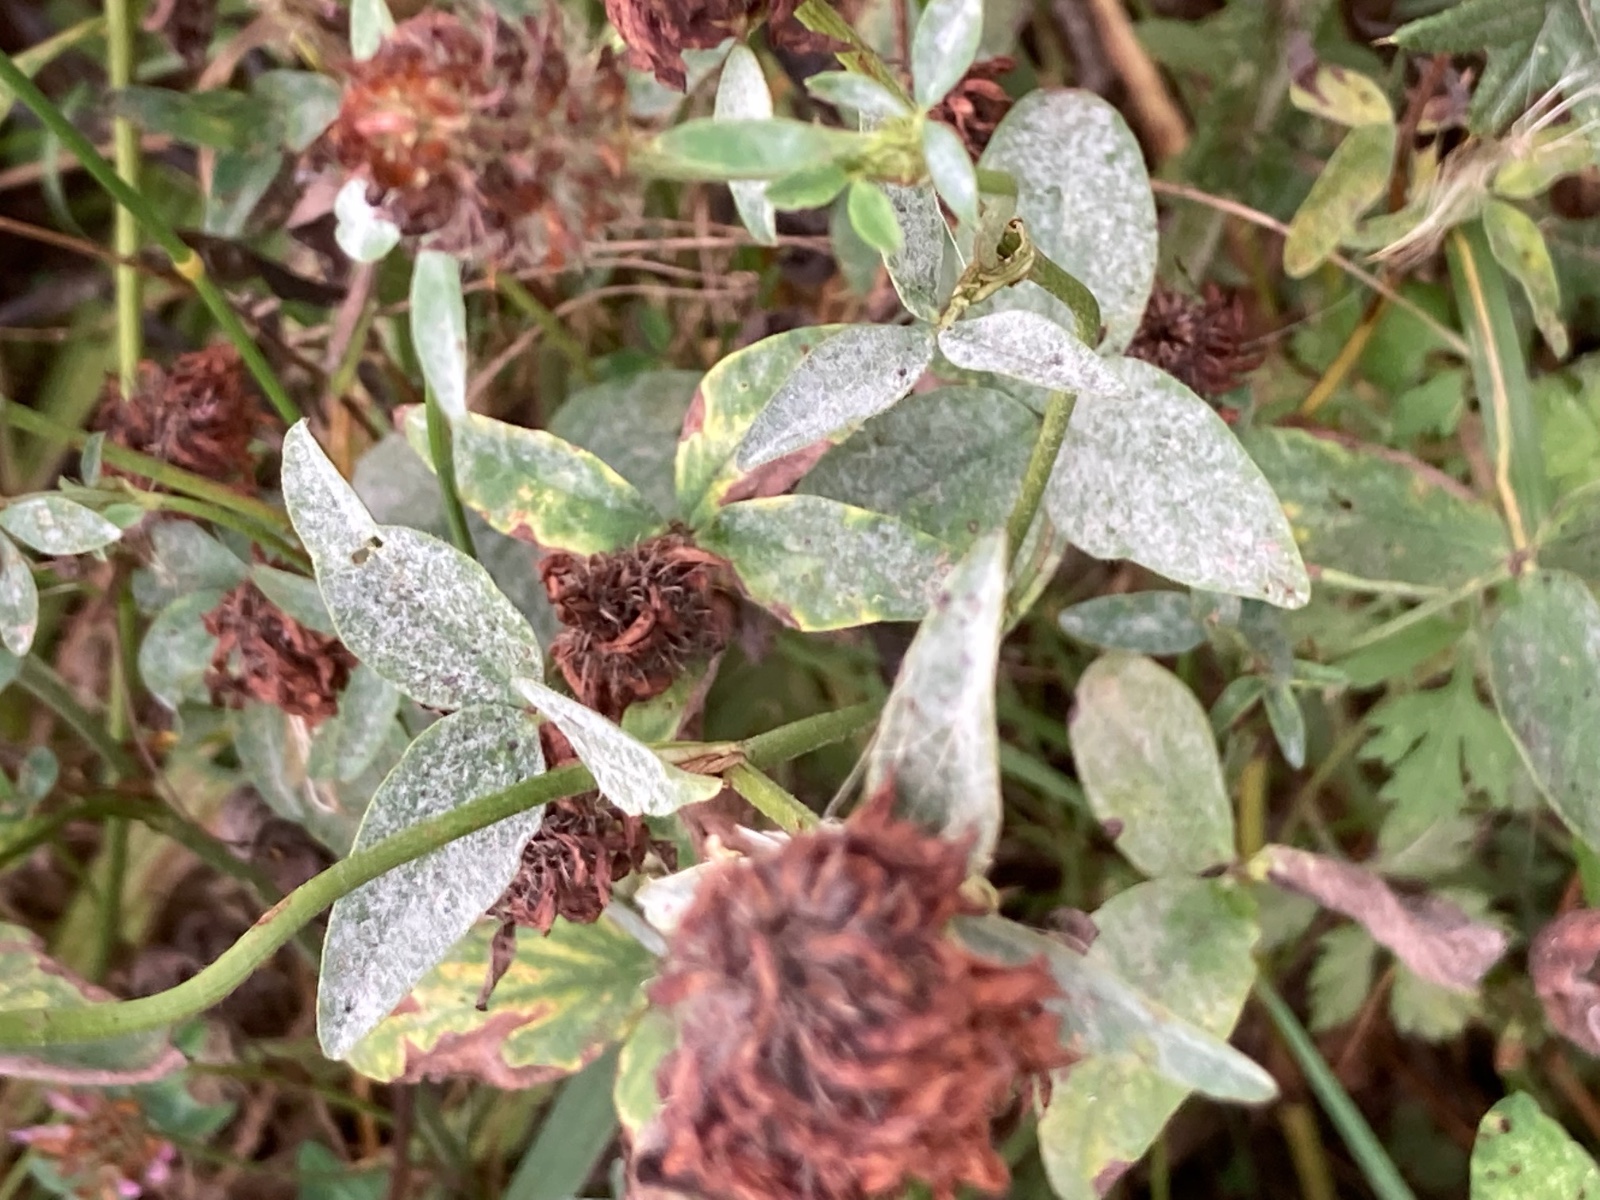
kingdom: Fungi
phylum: Ascomycota
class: Leotiomycetes
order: Helotiales
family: Erysiphaceae
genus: Erysiphe
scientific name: Erysiphe pisi
